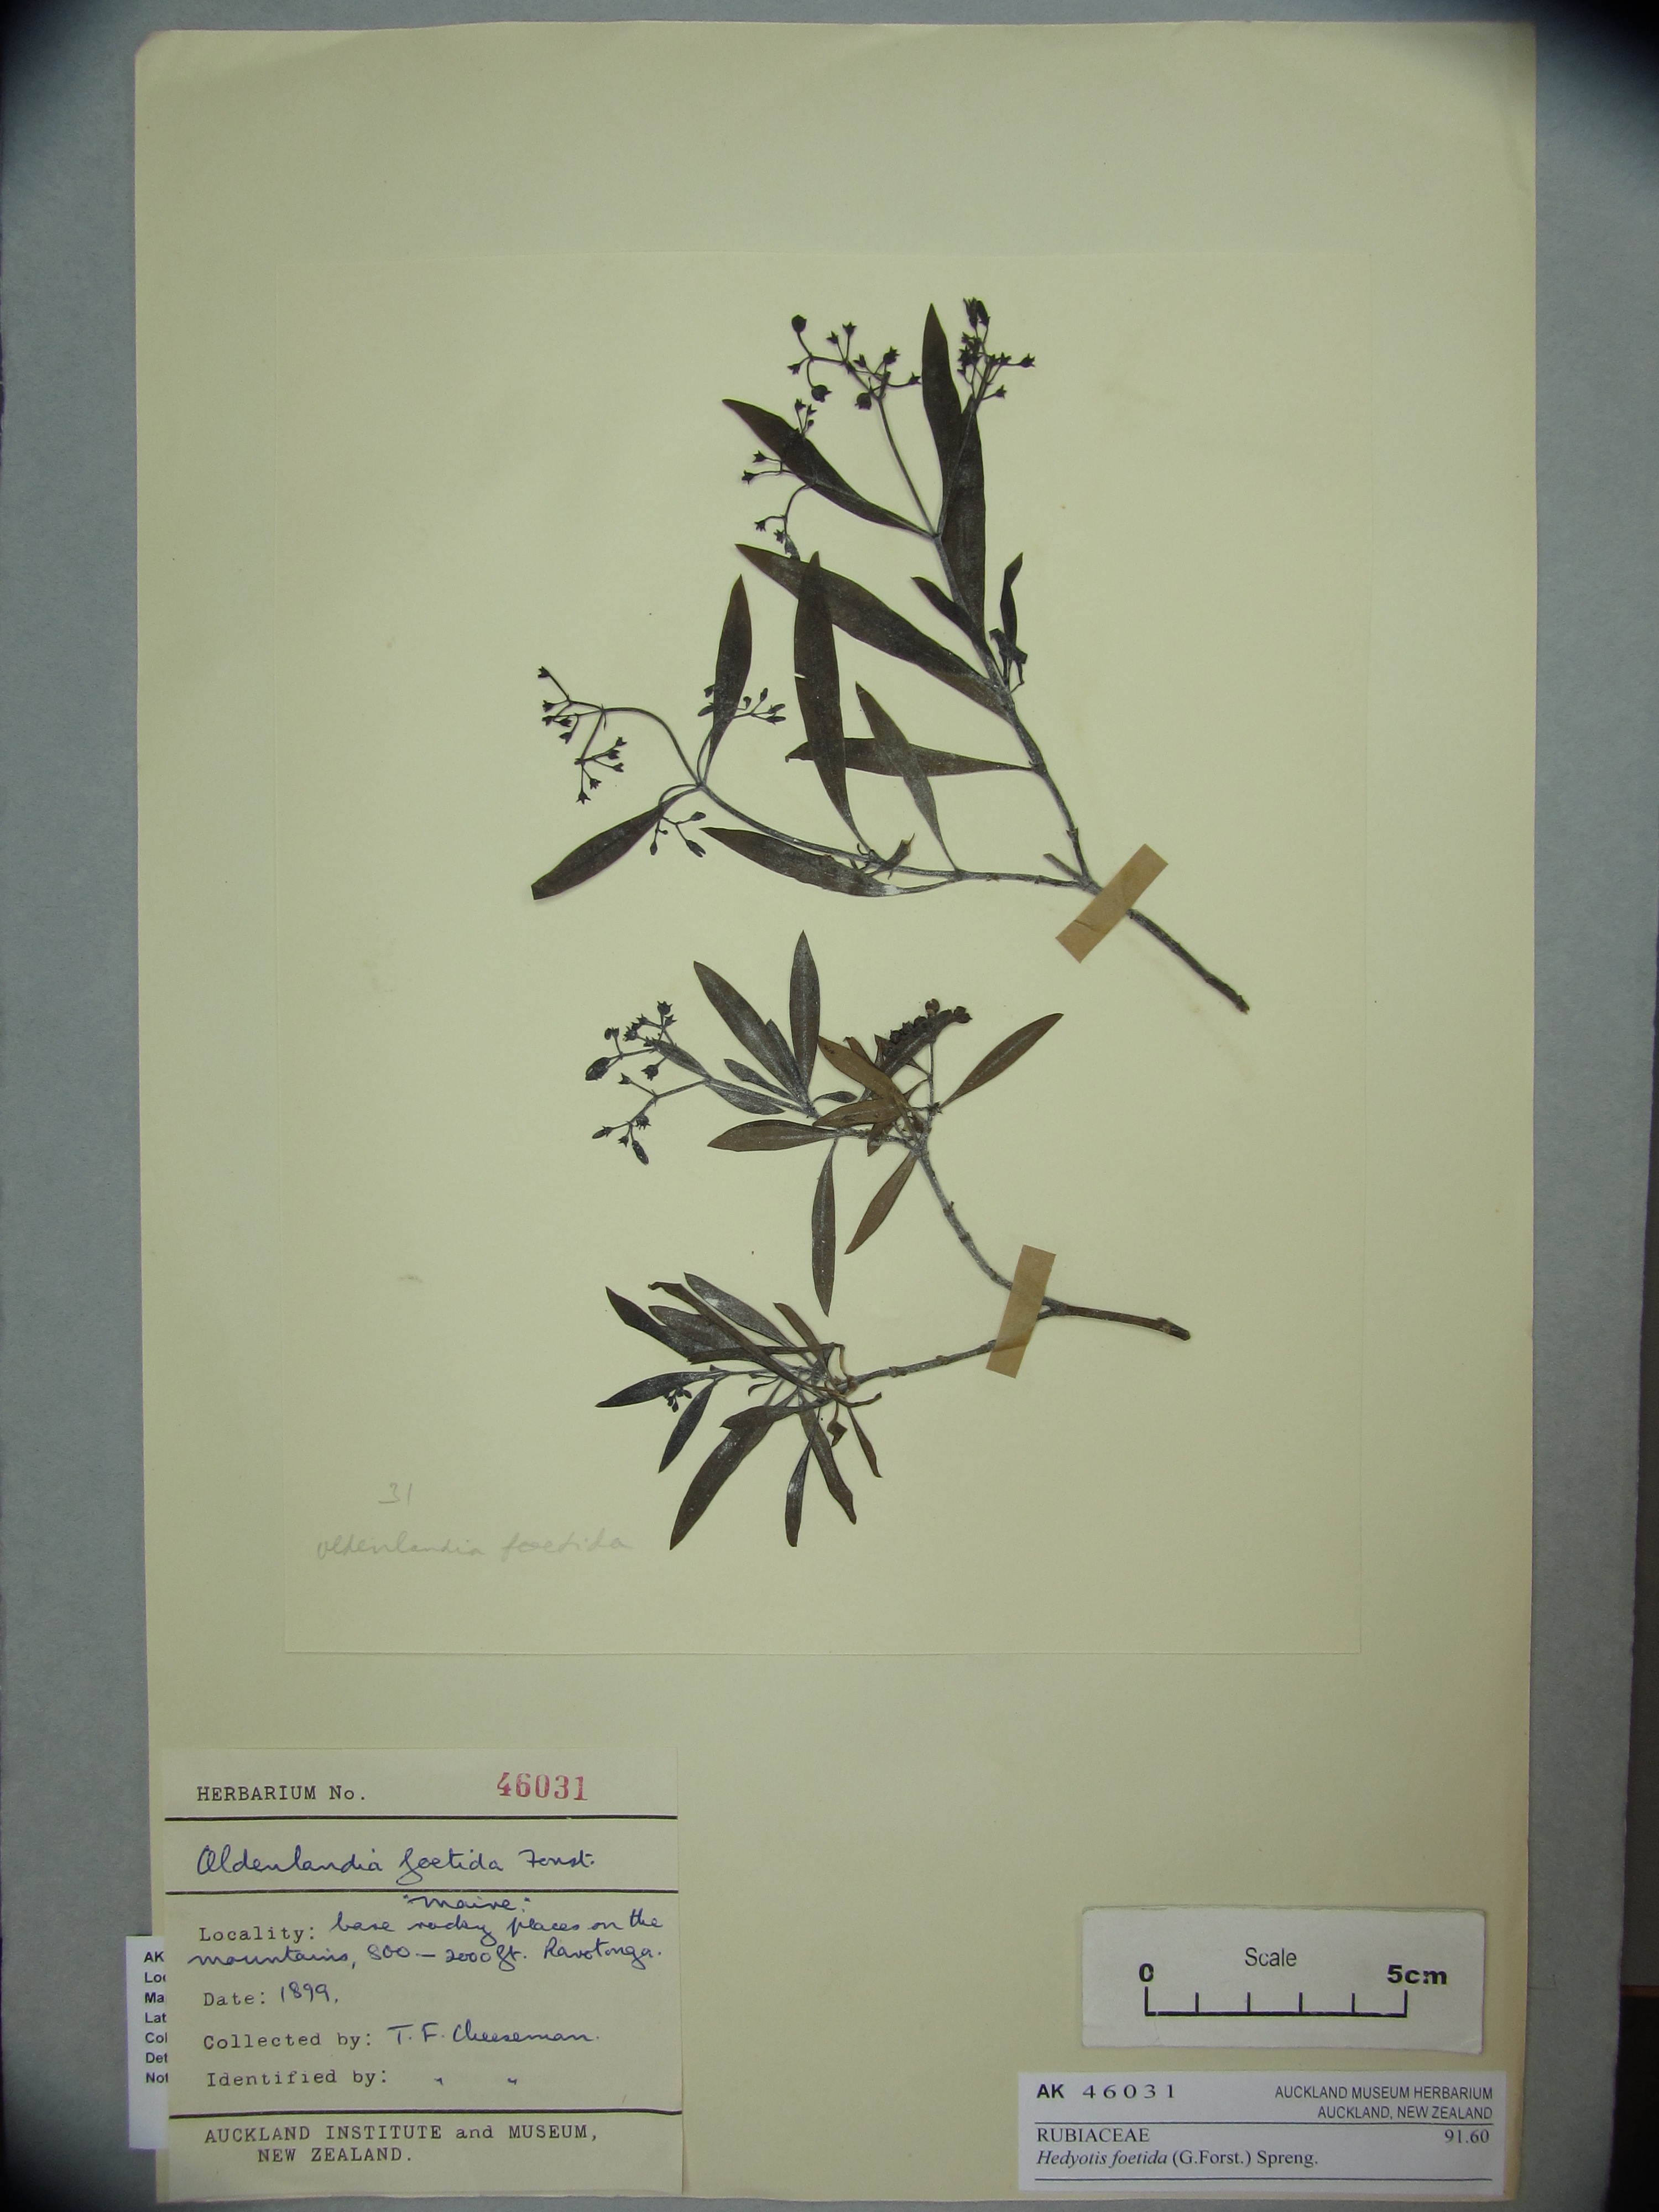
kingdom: Plantae
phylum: Tracheophyta
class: Magnoliopsida
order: Gentianales
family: Rubiaceae
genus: Leptopetalum
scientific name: Leptopetalum foetidum
